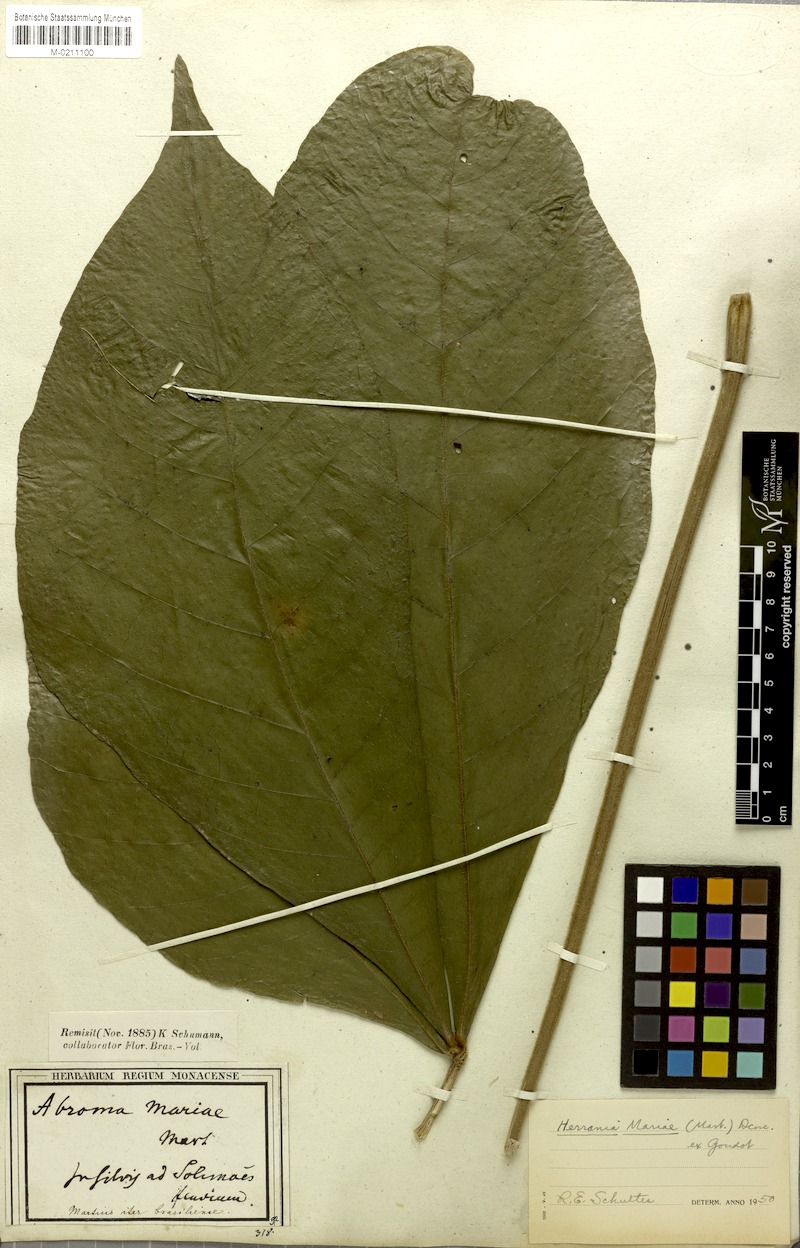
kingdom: Plantae
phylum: Tracheophyta
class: Magnoliopsida
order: Malvales
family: Malvaceae
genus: Abroma
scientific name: Abroma augustum
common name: Devil's-cotton
